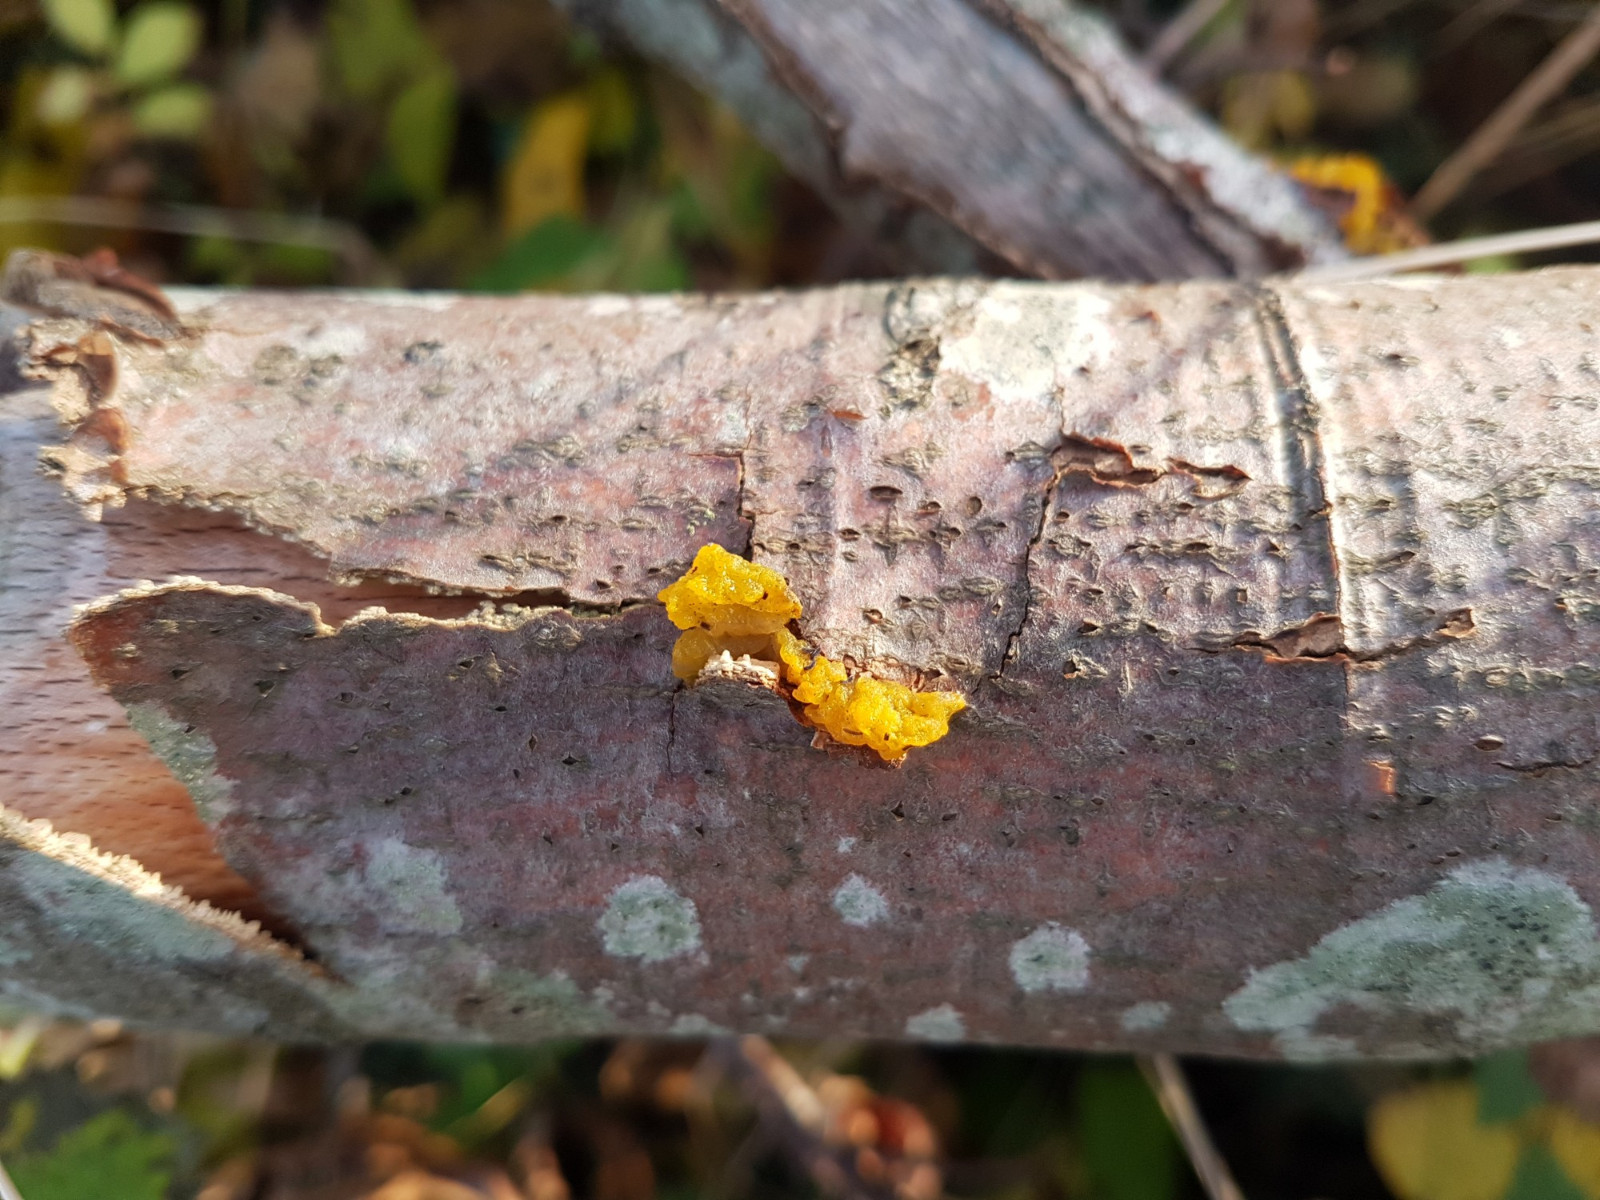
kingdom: Fungi
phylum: Basidiomycota
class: Tremellomycetes
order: Tremellales
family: Tremellaceae
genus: Tremella
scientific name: Tremella mesenterica
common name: gul bævresvamp
